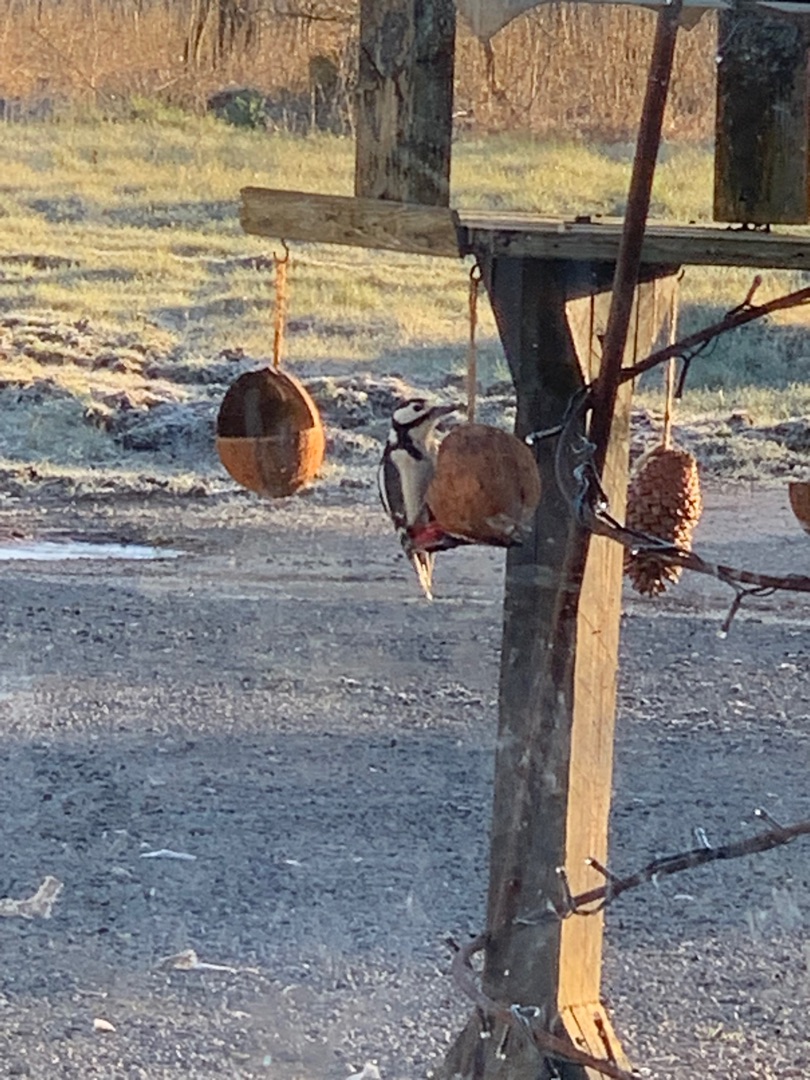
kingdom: Animalia
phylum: Chordata
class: Aves
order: Piciformes
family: Picidae
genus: Dendrocopos
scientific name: Dendrocopos major
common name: Stor flagspætte
